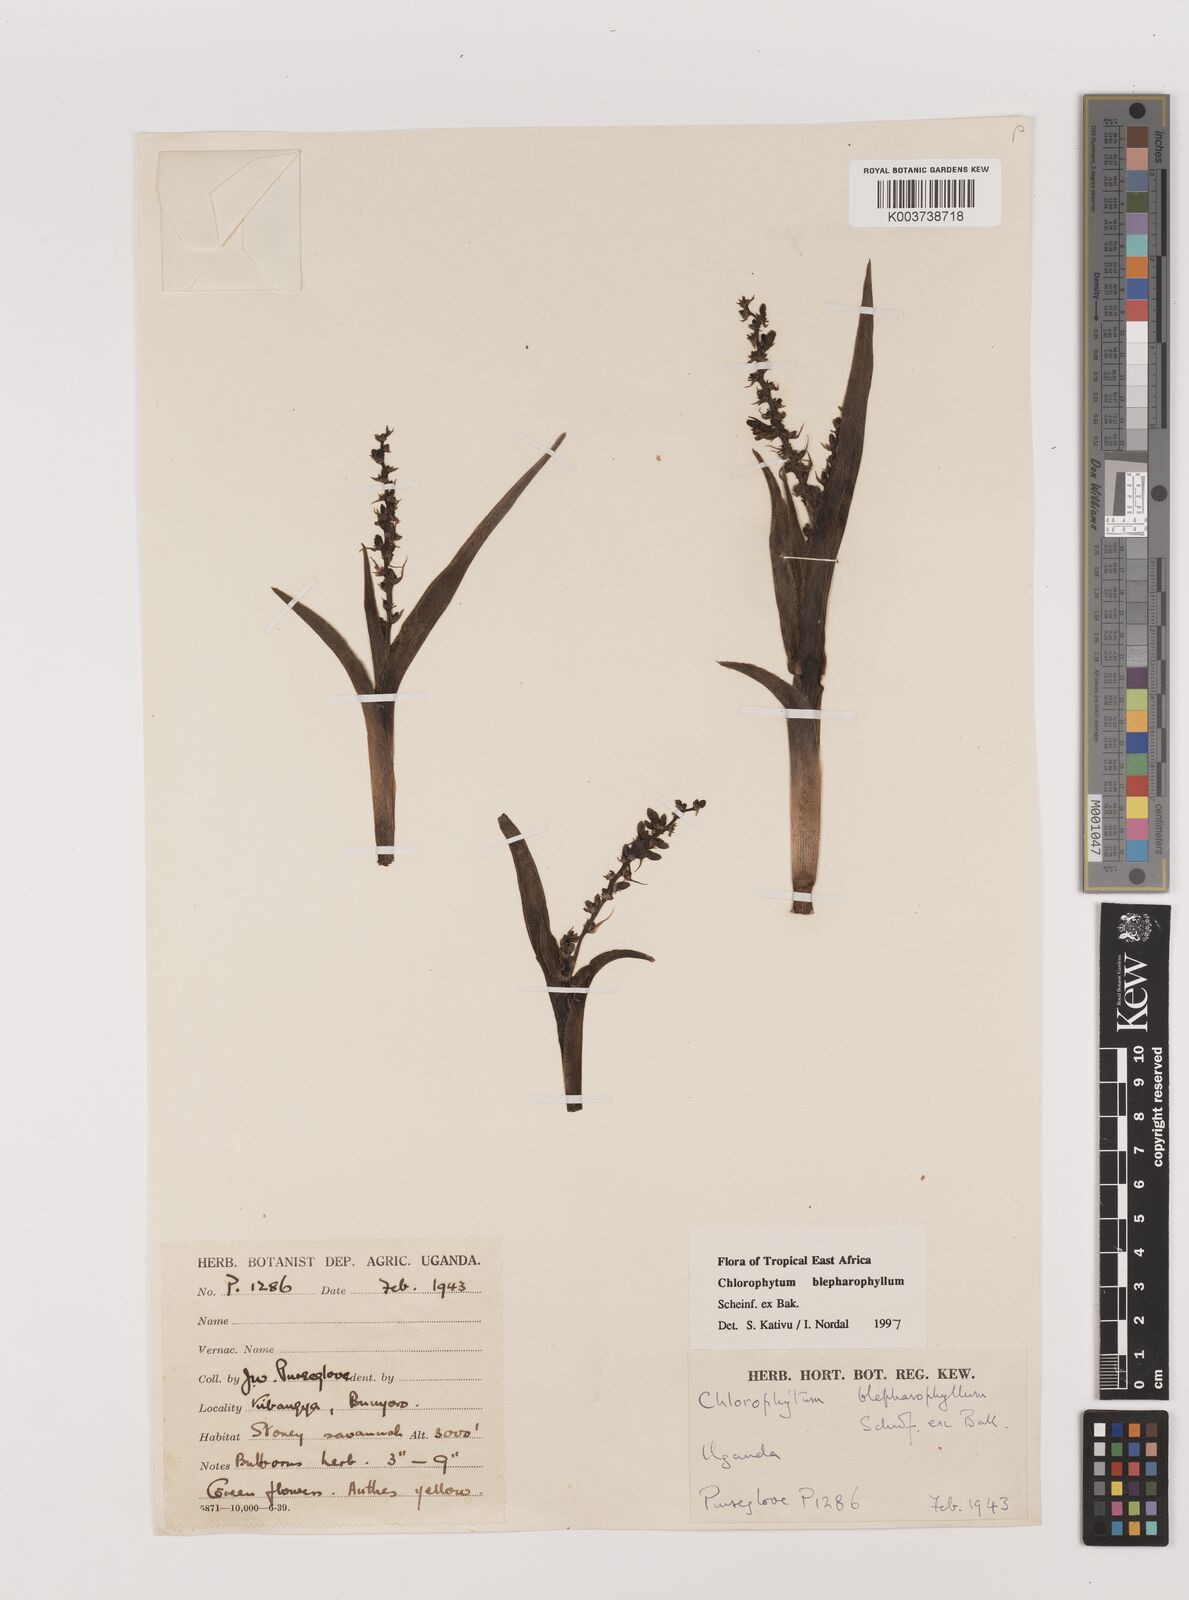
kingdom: Plantae
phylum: Tracheophyta
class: Liliopsida
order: Asparagales
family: Asparagaceae
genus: Chlorophytum
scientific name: Chlorophytum blepharophyllum
